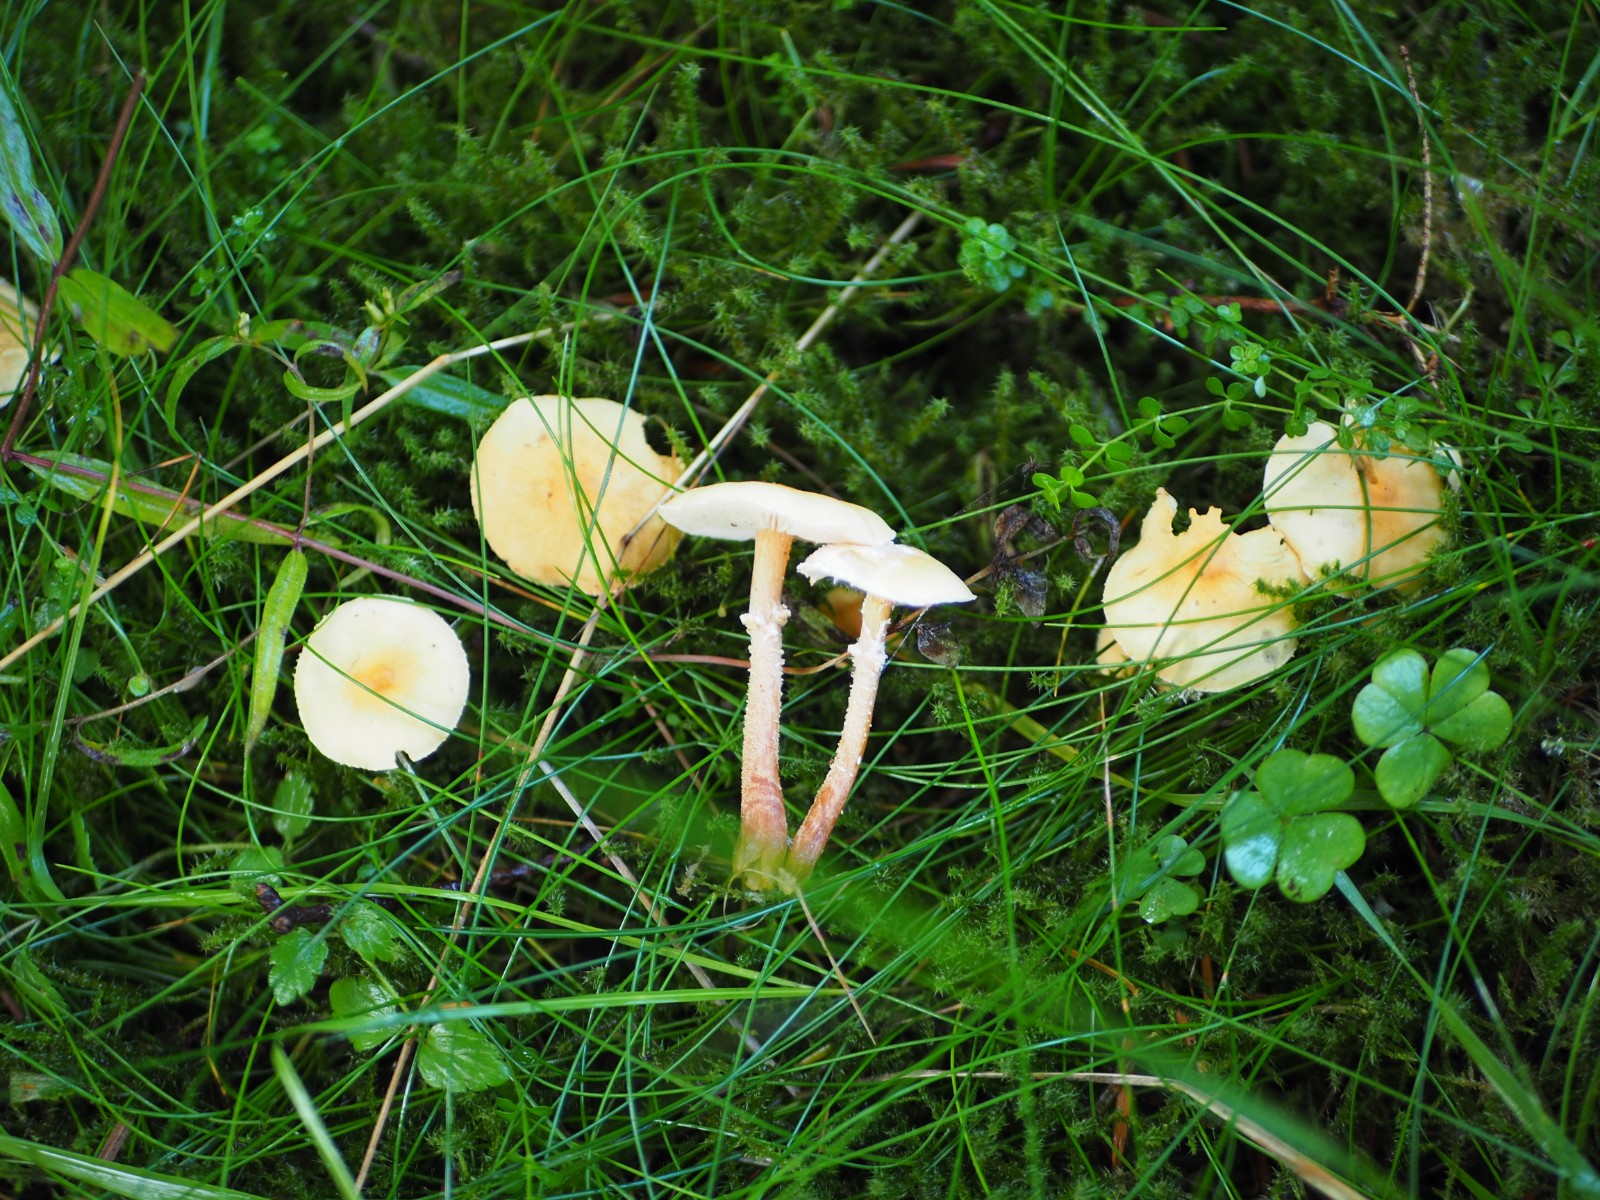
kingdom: Fungi
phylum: Basidiomycota
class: Agaricomycetes
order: Agaricales
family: Tricholomataceae
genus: Cystoderma
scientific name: Cystoderma amianthinum
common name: okkergul grynhat
